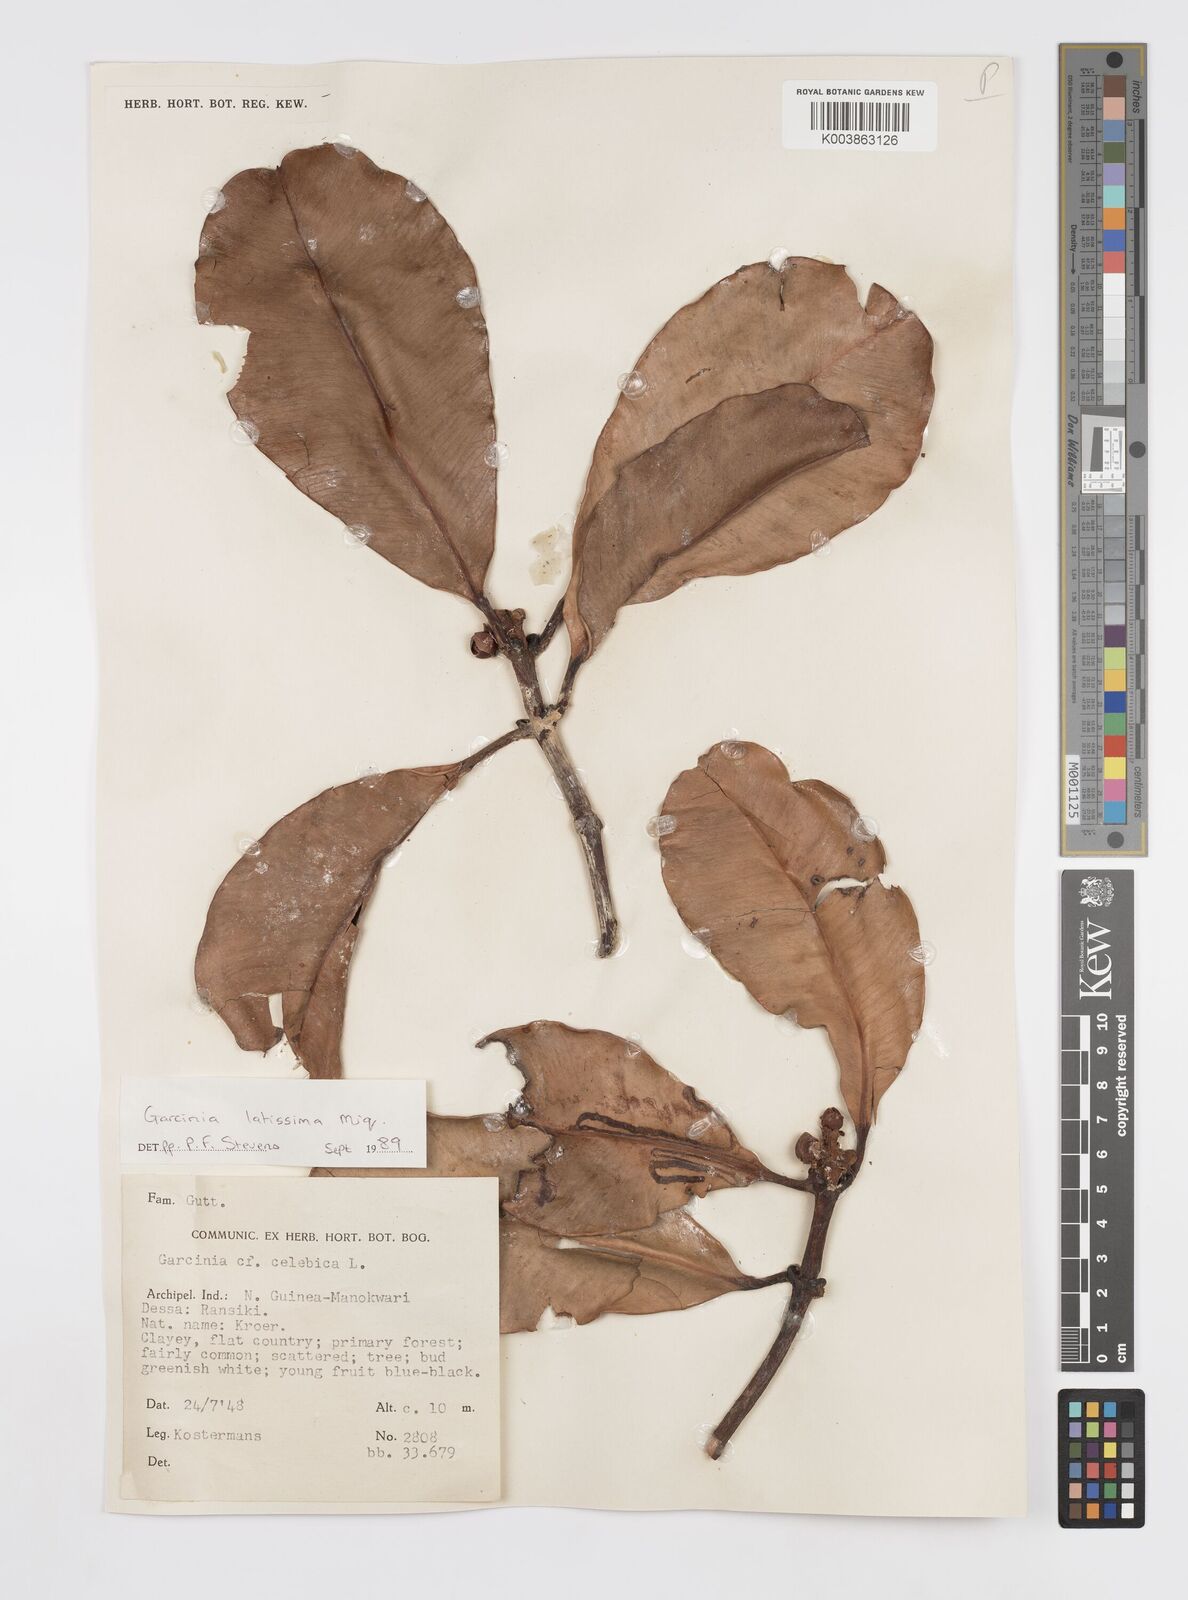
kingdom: Plantae
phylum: Tracheophyta
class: Magnoliopsida
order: Malpighiales
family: Clusiaceae
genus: Garcinia
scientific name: Garcinia latissima
